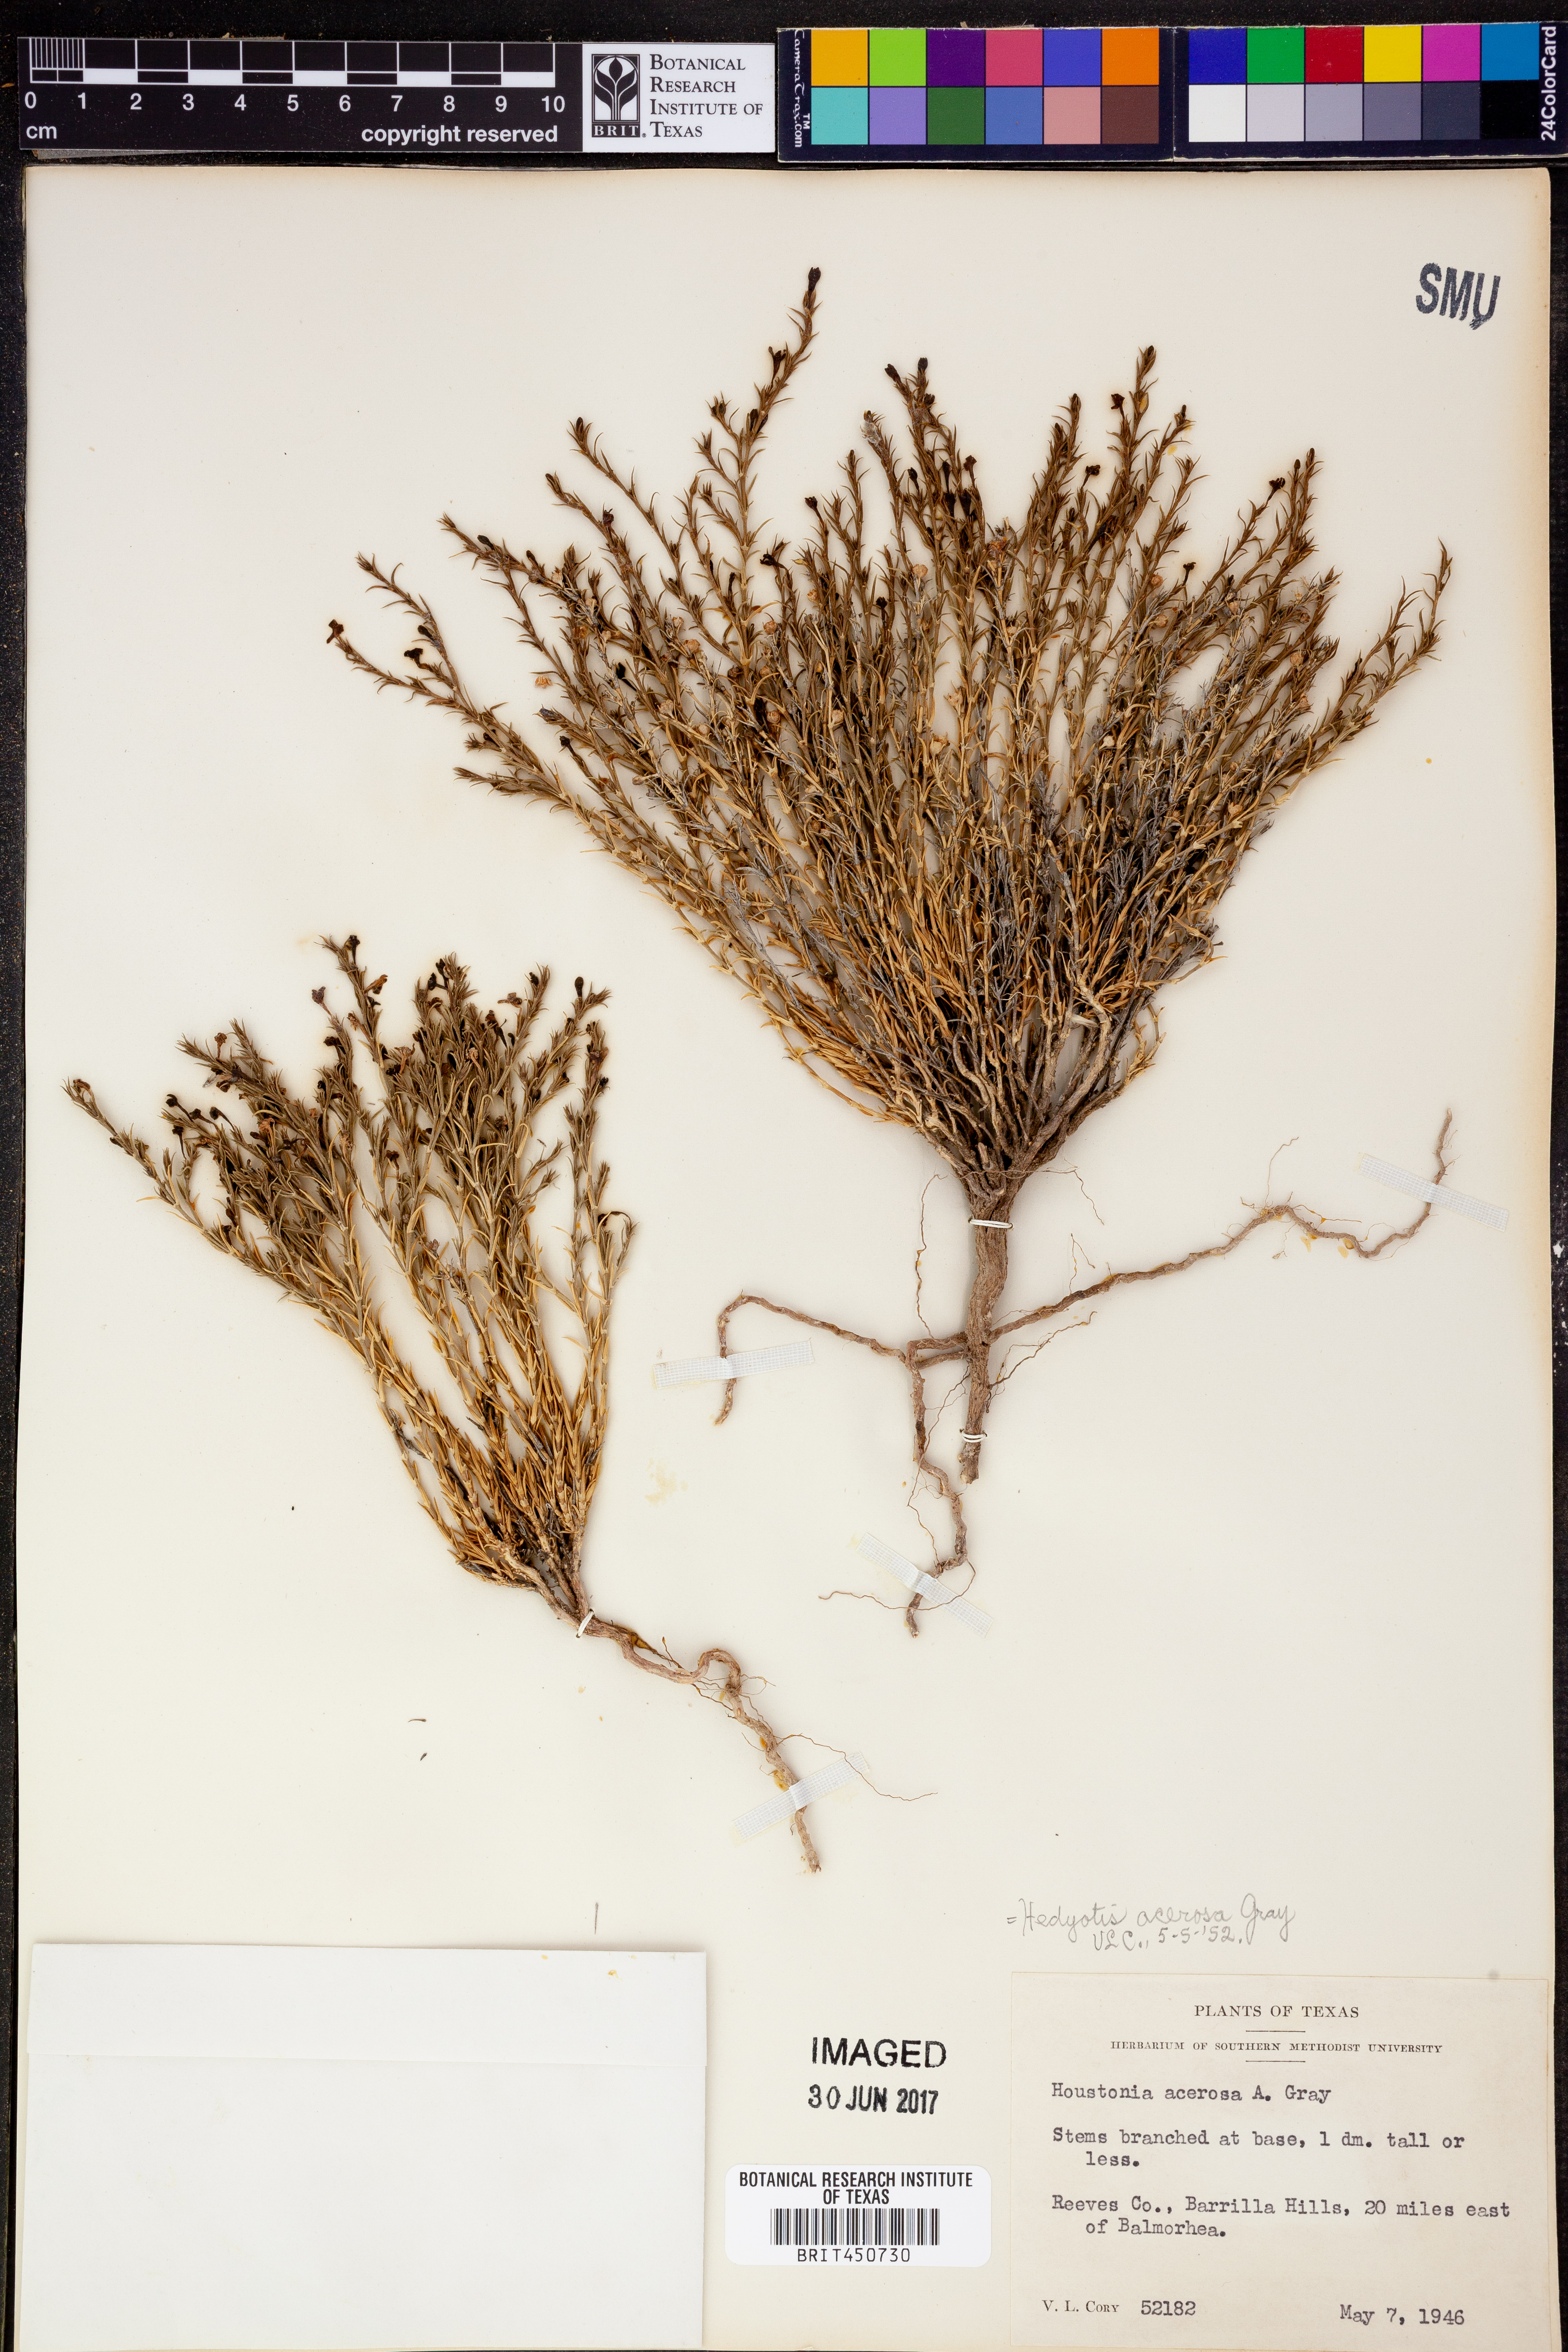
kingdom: Plantae
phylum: Tracheophyta
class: Magnoliopsida
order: Gentianales
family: Rubiaceae
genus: Houstonia
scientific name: Houstonia acerosa
